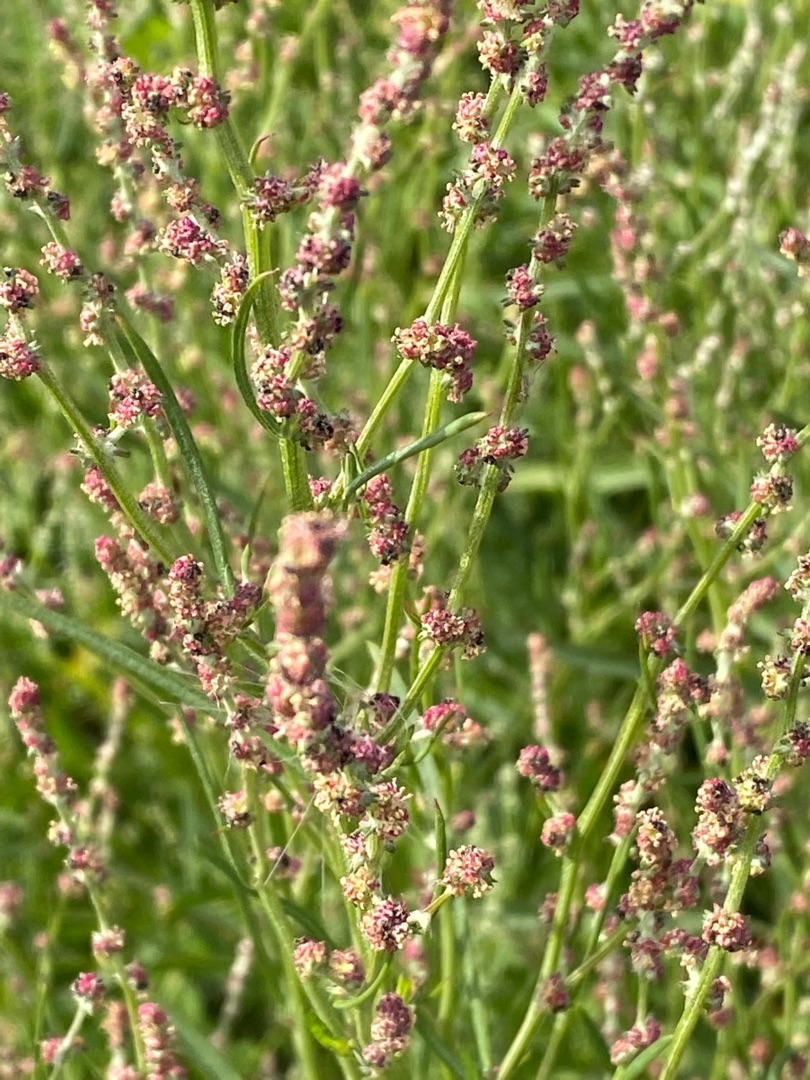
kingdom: Plantae
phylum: Tracheophyta
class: Magnoliopsida
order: Caryophyllales
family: Amaranthaceae
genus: Atriplex
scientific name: Atriplex littoralis
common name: Strand-mælde
